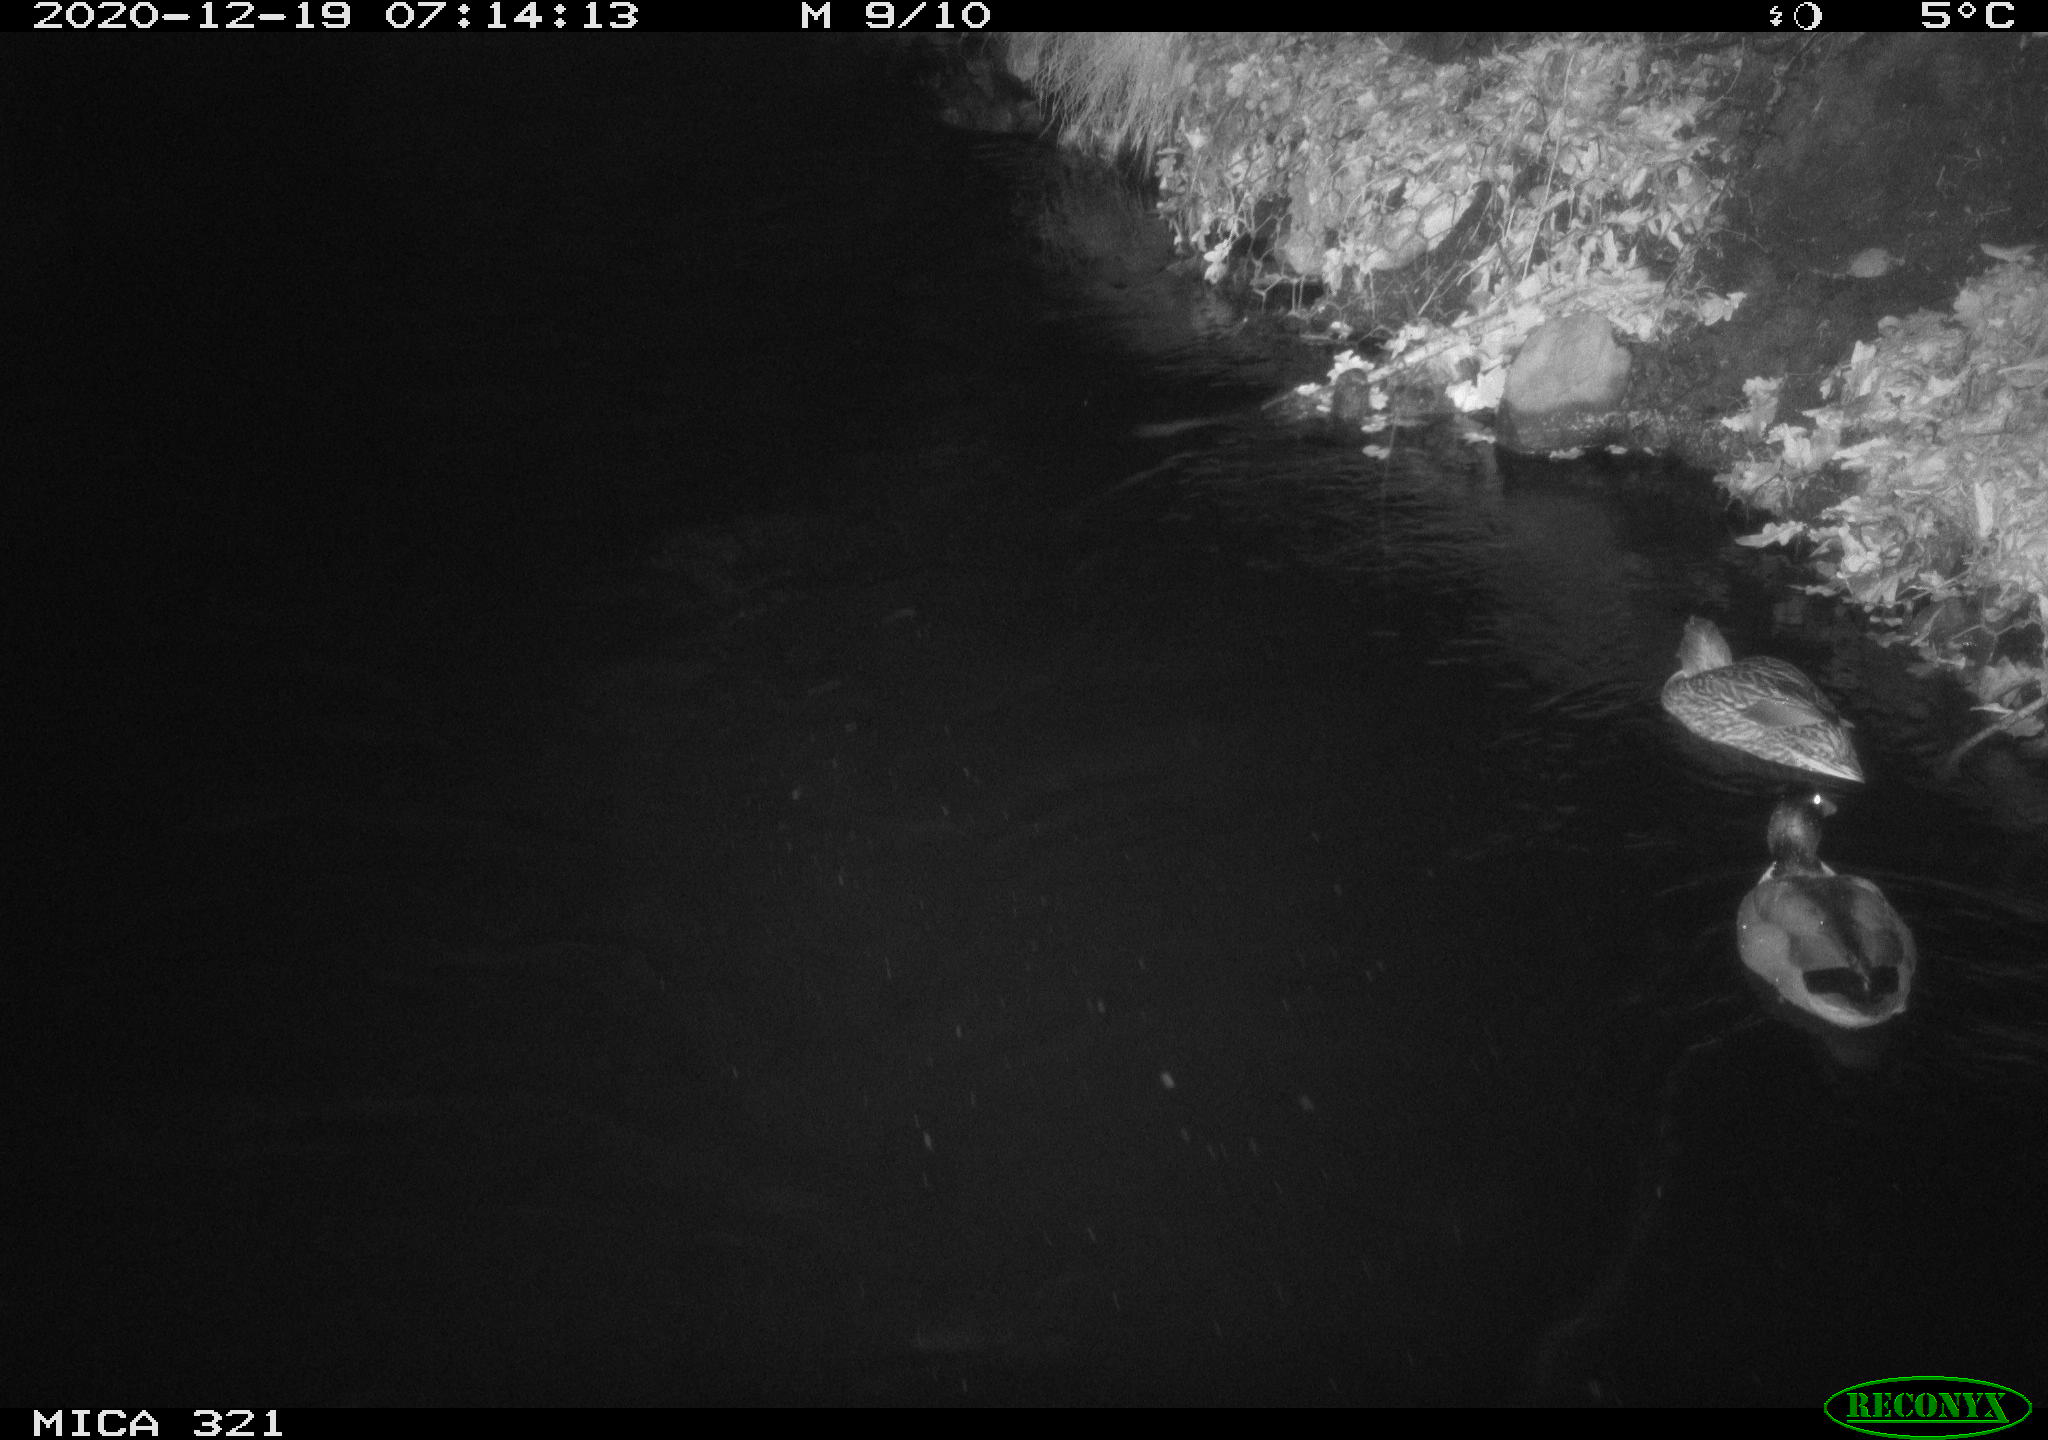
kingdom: Animalia
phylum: Chordata
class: Aves
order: Anseriformes
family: Anatidae
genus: Anas
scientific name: Anas platyrhynchos
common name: Mallard
